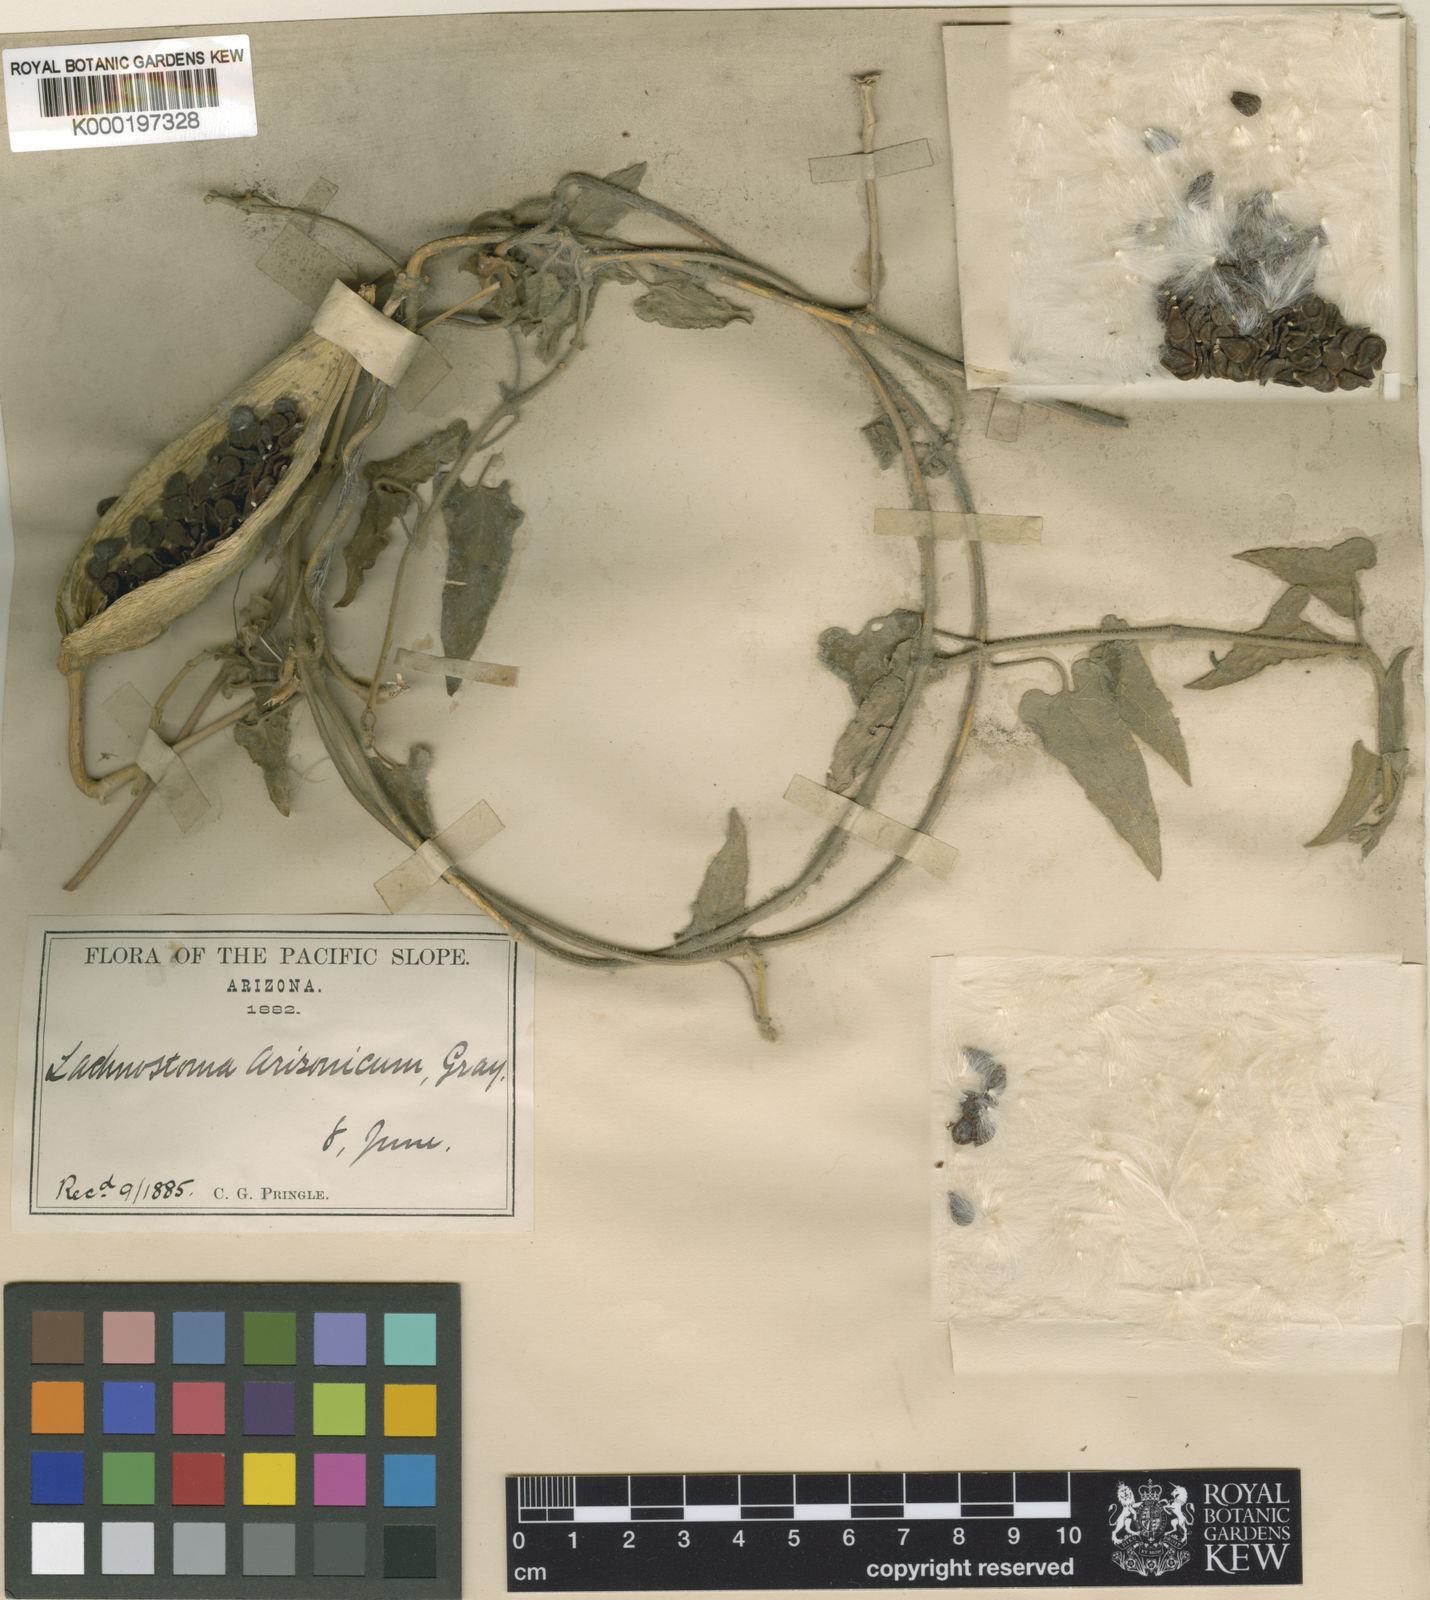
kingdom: Plantae
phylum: Tracheophyta
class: Magnoliopsida
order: Gentianales
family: Apocynaceae
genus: Gonolobus
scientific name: Gonolobus arizonicus
